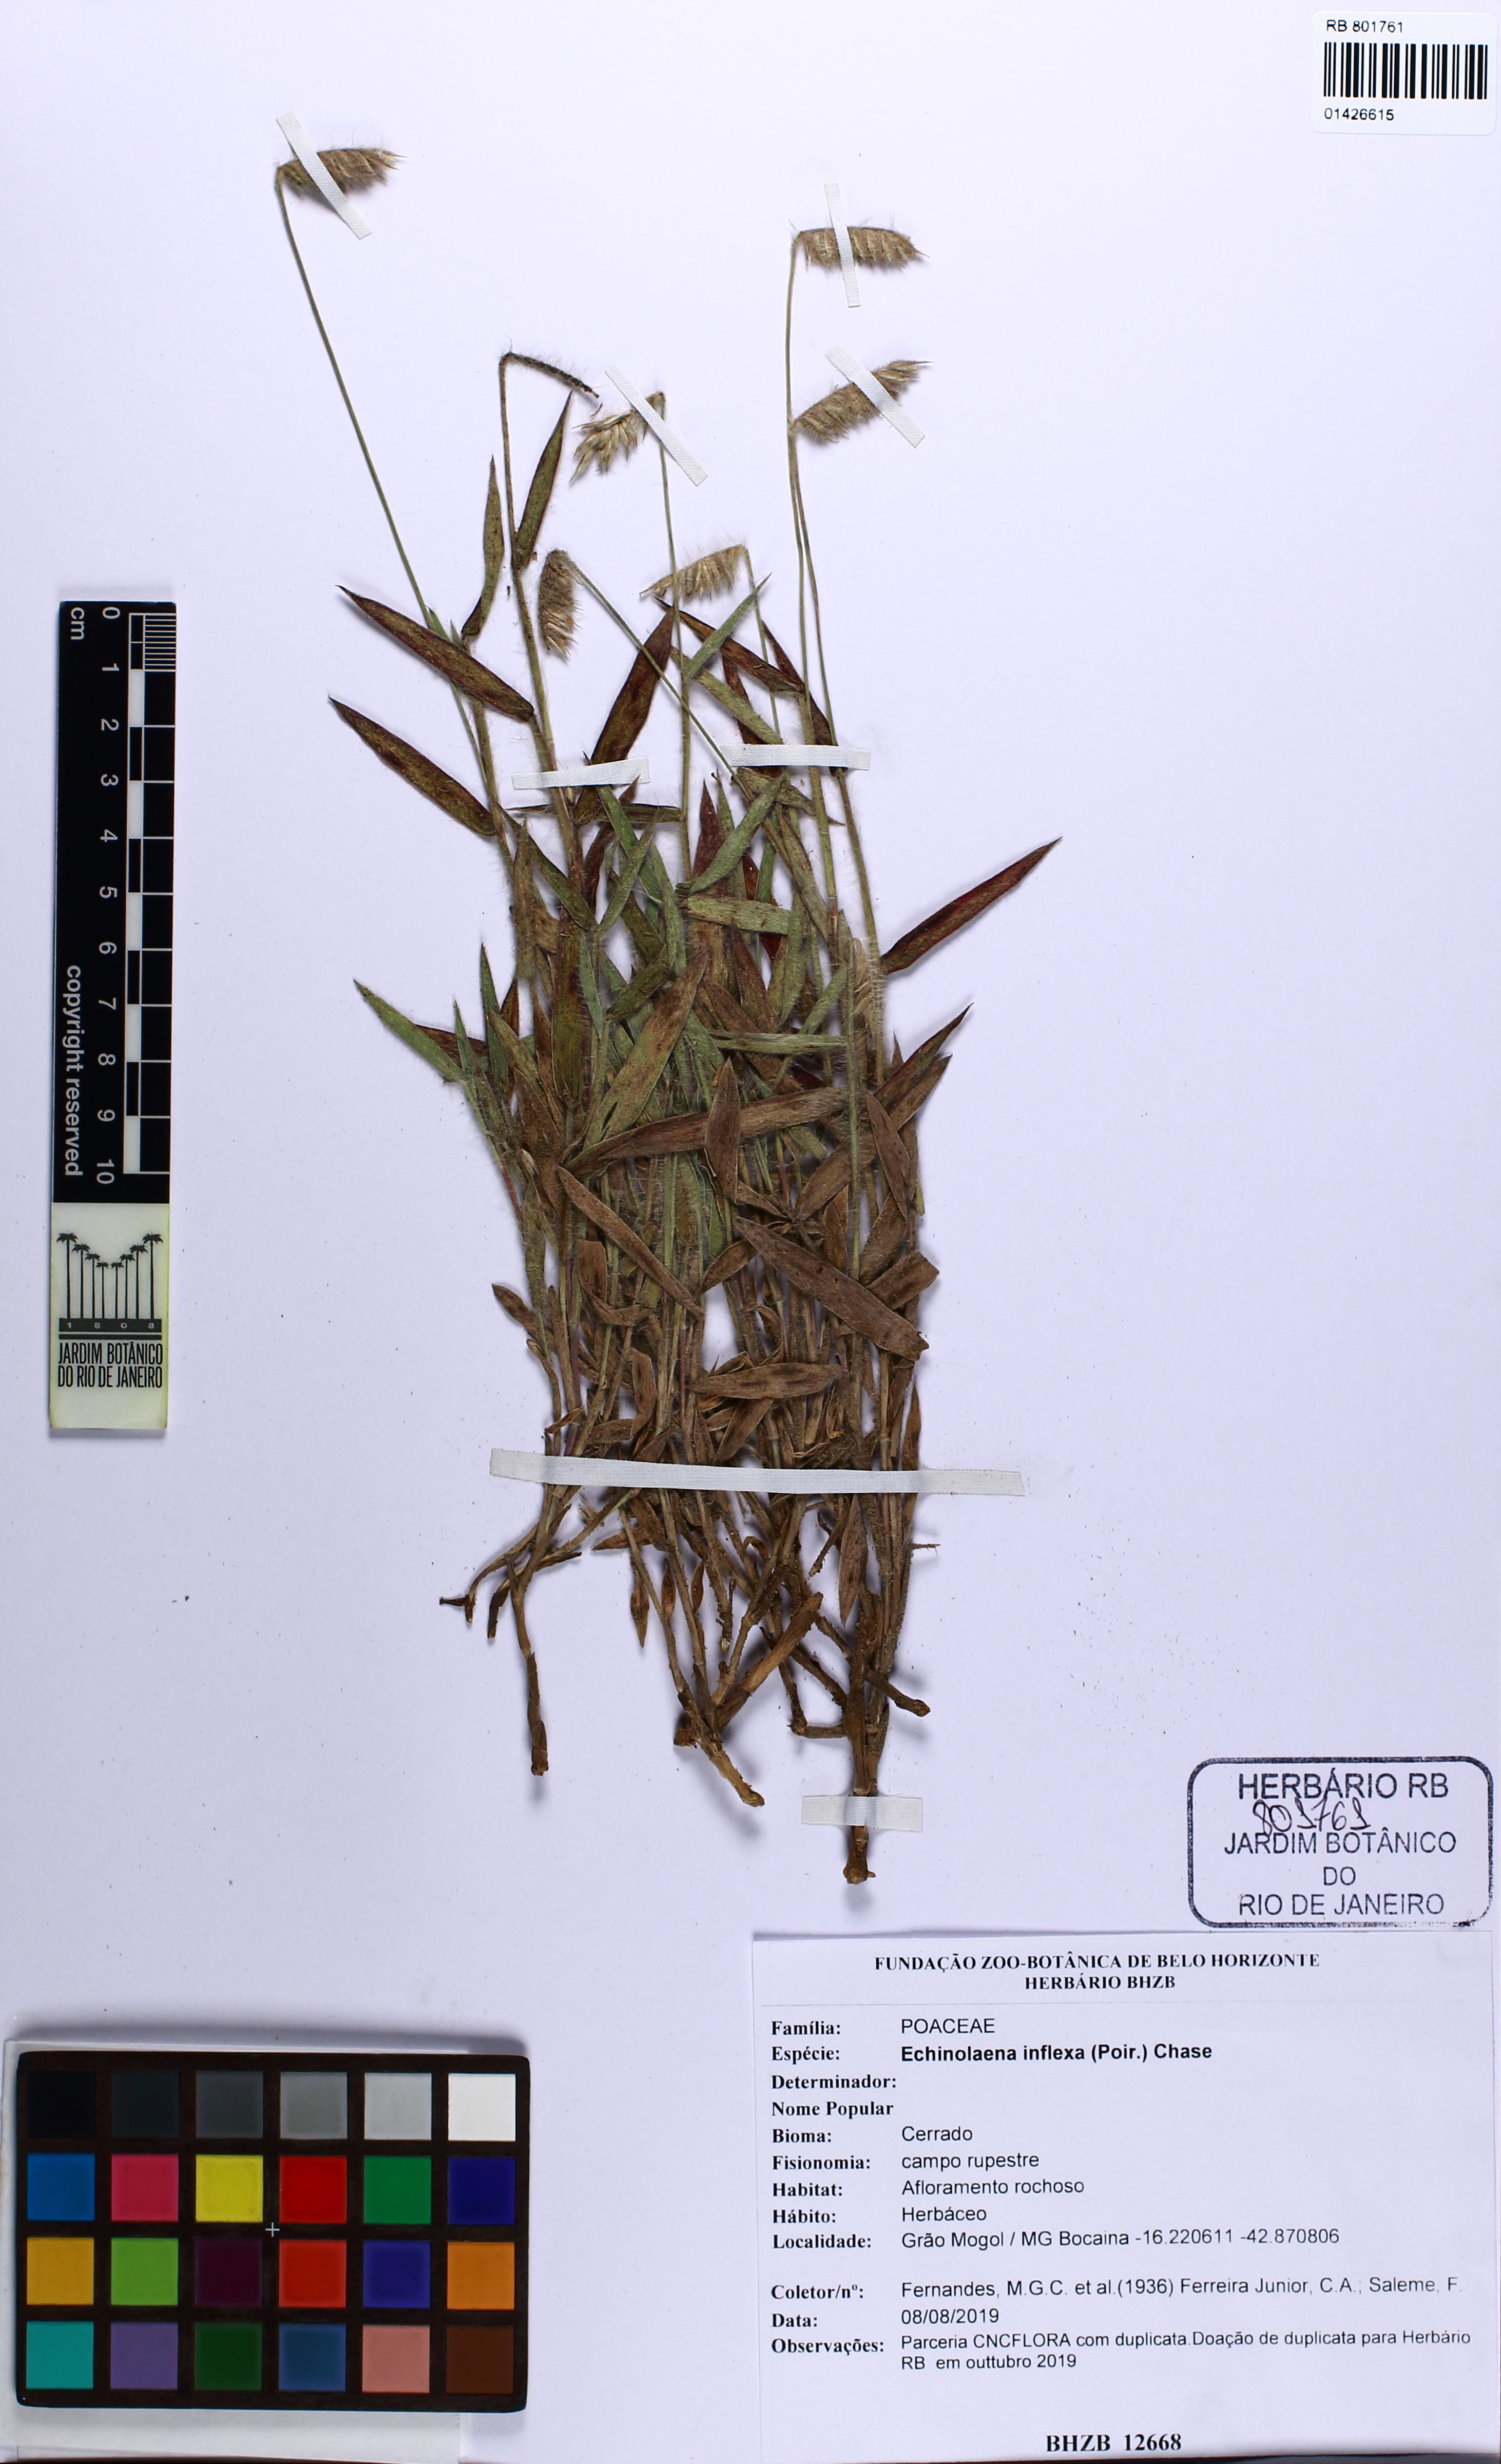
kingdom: Plantae
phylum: Tracheophyta
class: Liliopsida
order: Poales
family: Poaceae
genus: Echinolaena
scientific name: Echinolaena inflexa
